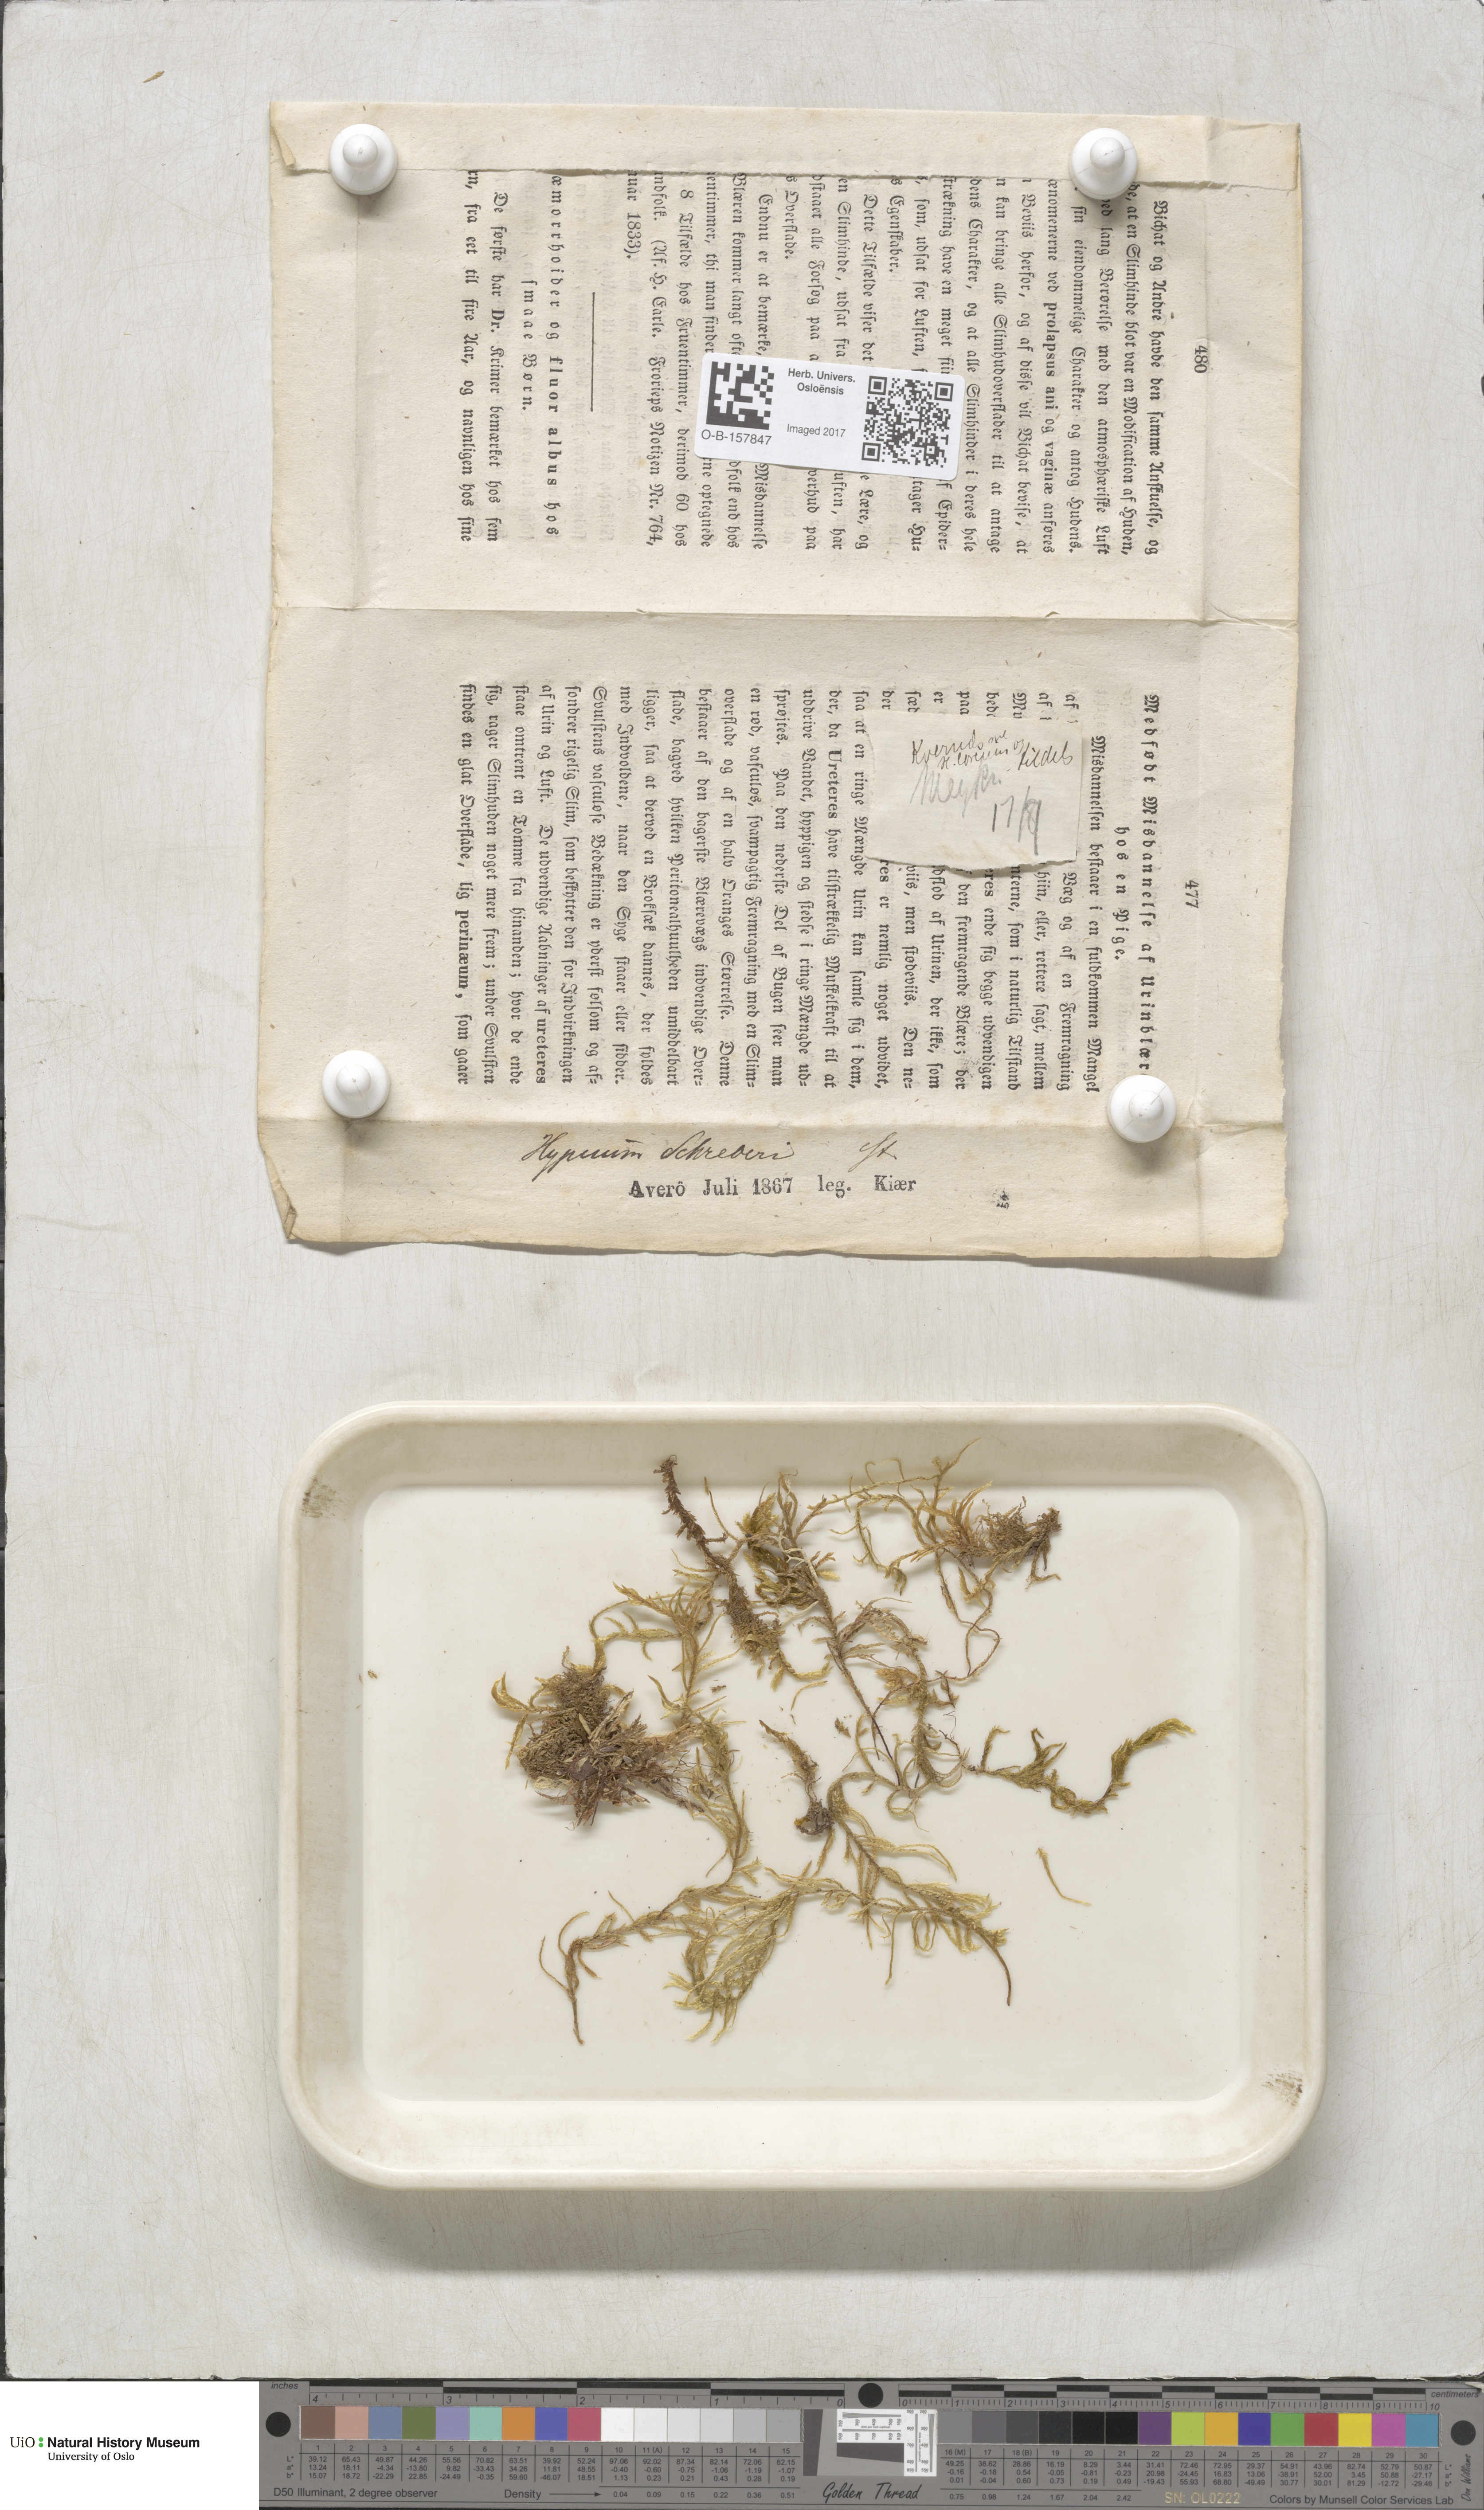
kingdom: Plantae
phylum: Bryophyta
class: Bryopsida
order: Hypnales
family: Hylocomiaceae
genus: Pleurozium
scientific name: Pleurozium schreberi
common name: Red-stemmed feather moss
